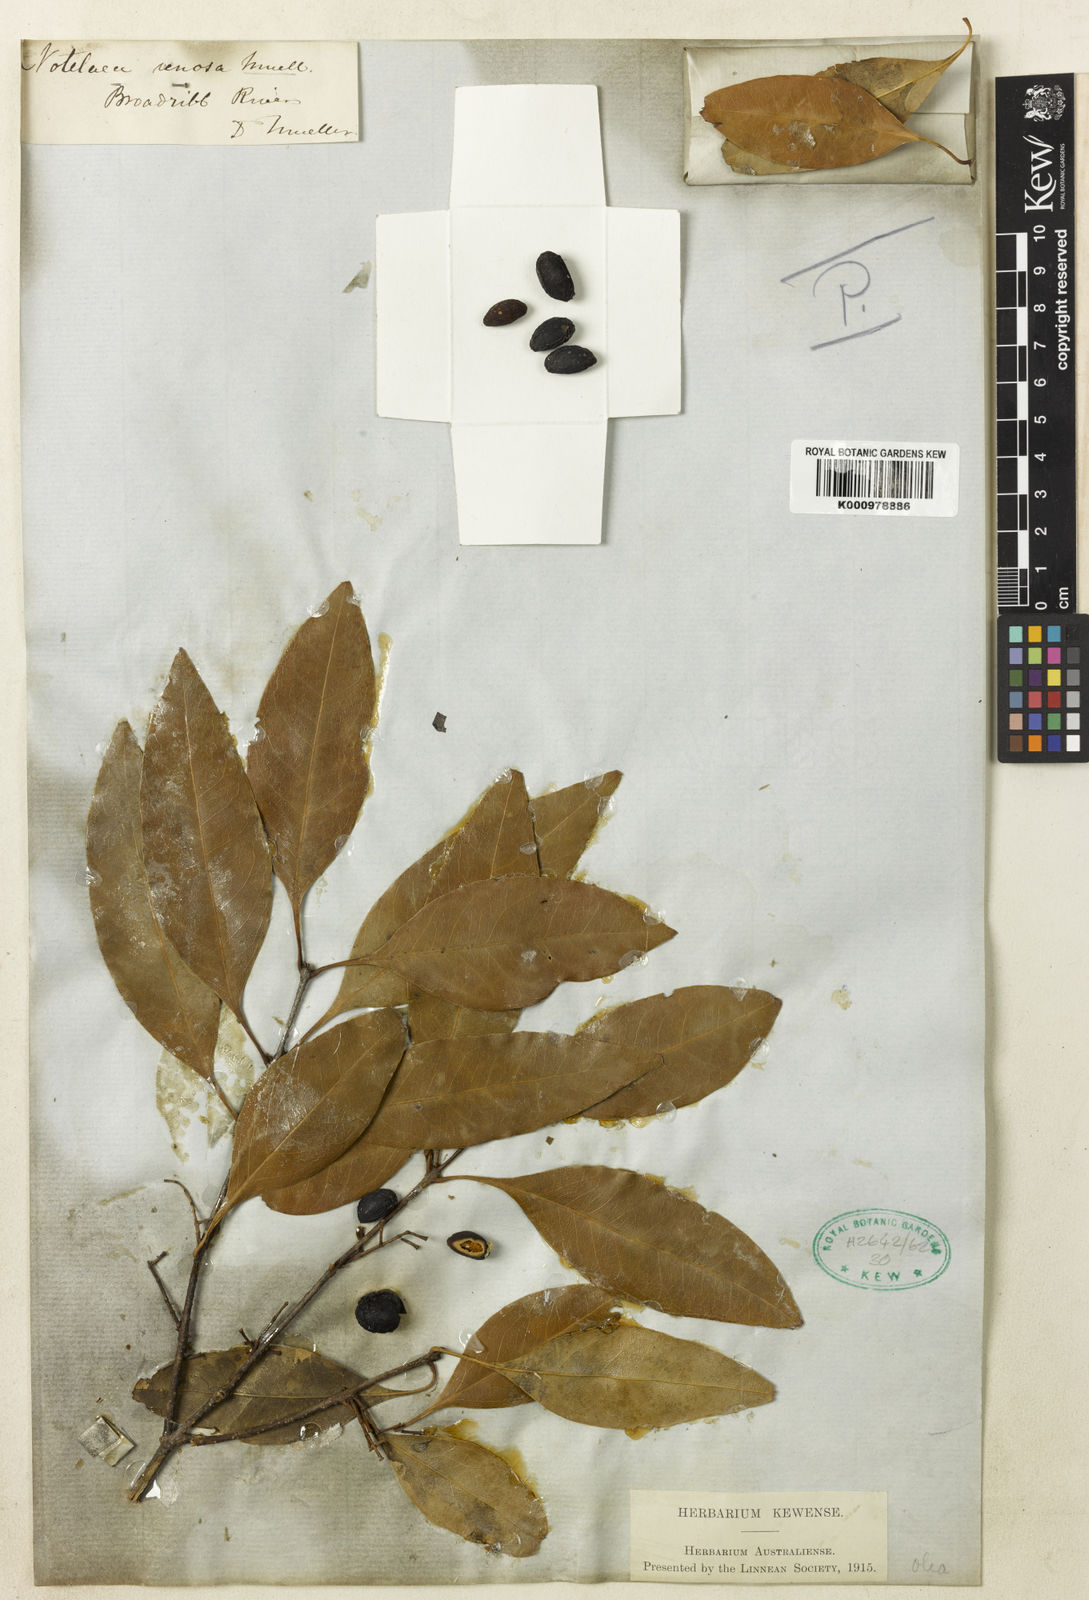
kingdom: Plantae
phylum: Tracheophyta
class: Magnoliopsida
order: Lamiales
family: Oleaceae
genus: Notelaea
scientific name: Notelaea venosa
